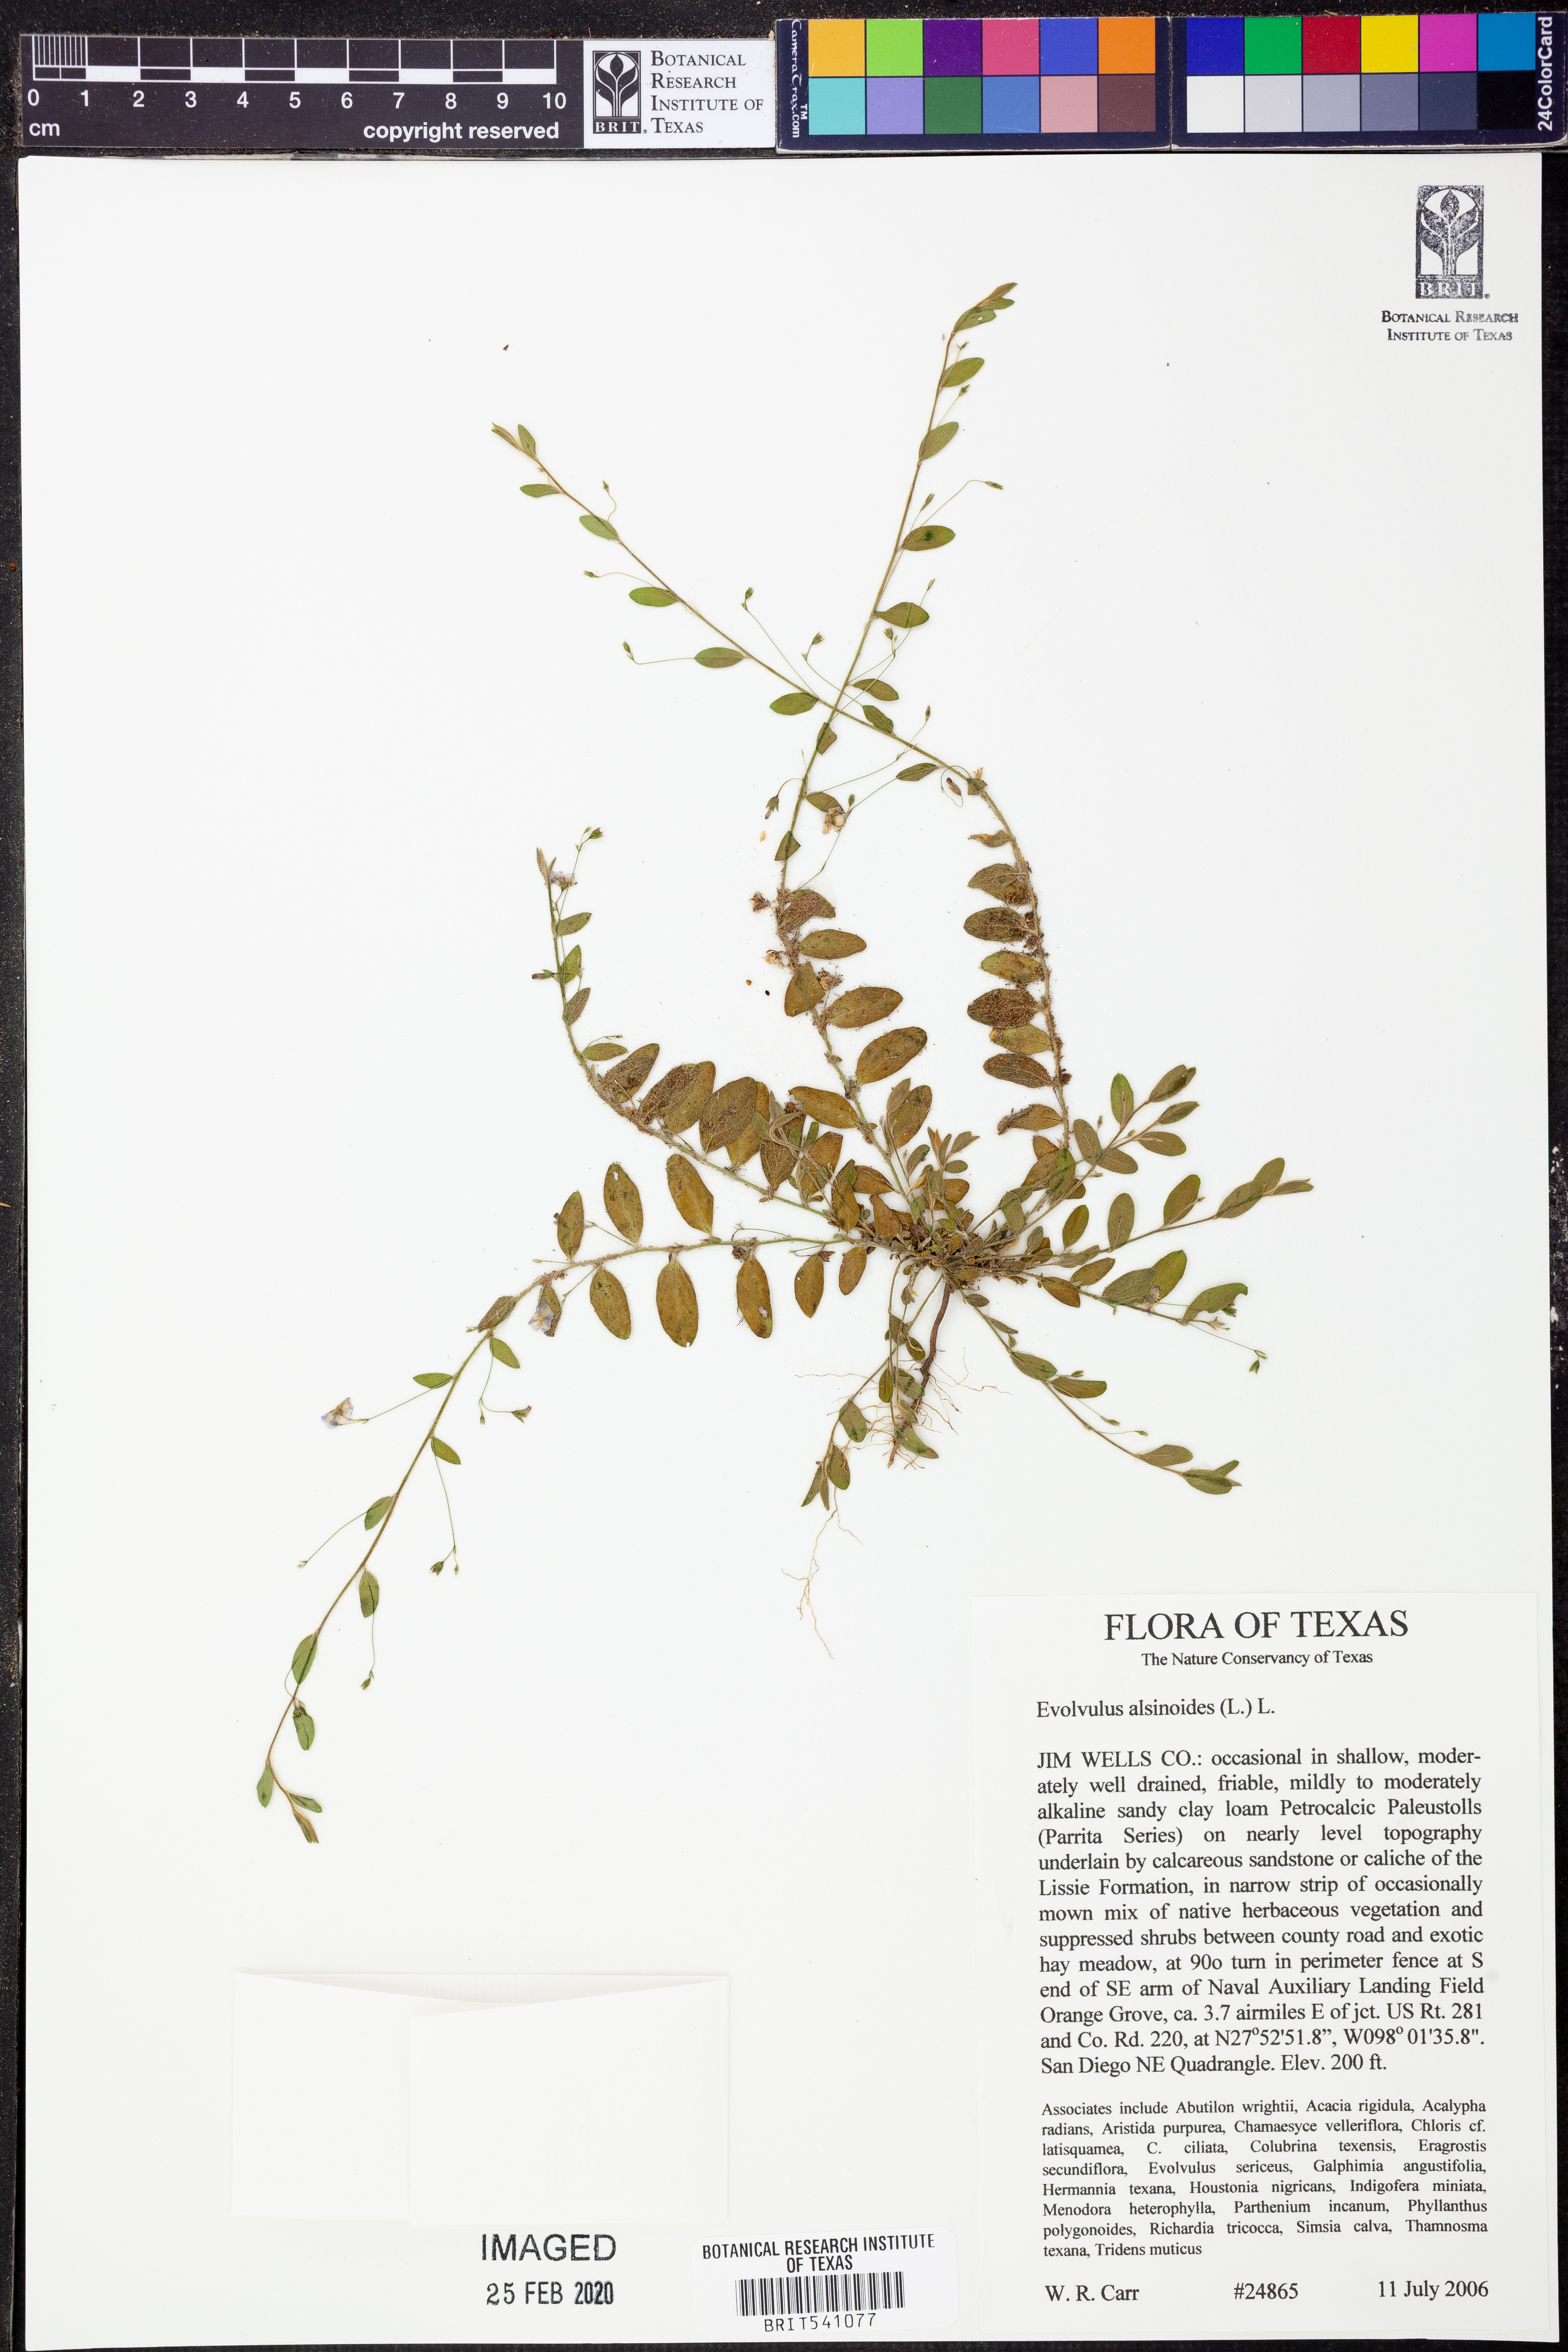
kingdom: Plantae
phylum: Tracheophyta
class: Magnoliopsida
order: Solanales
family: Convolvulaceae
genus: Evolvulus
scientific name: Evolvulus alsinoides
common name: Slender dwarf morning-glory
